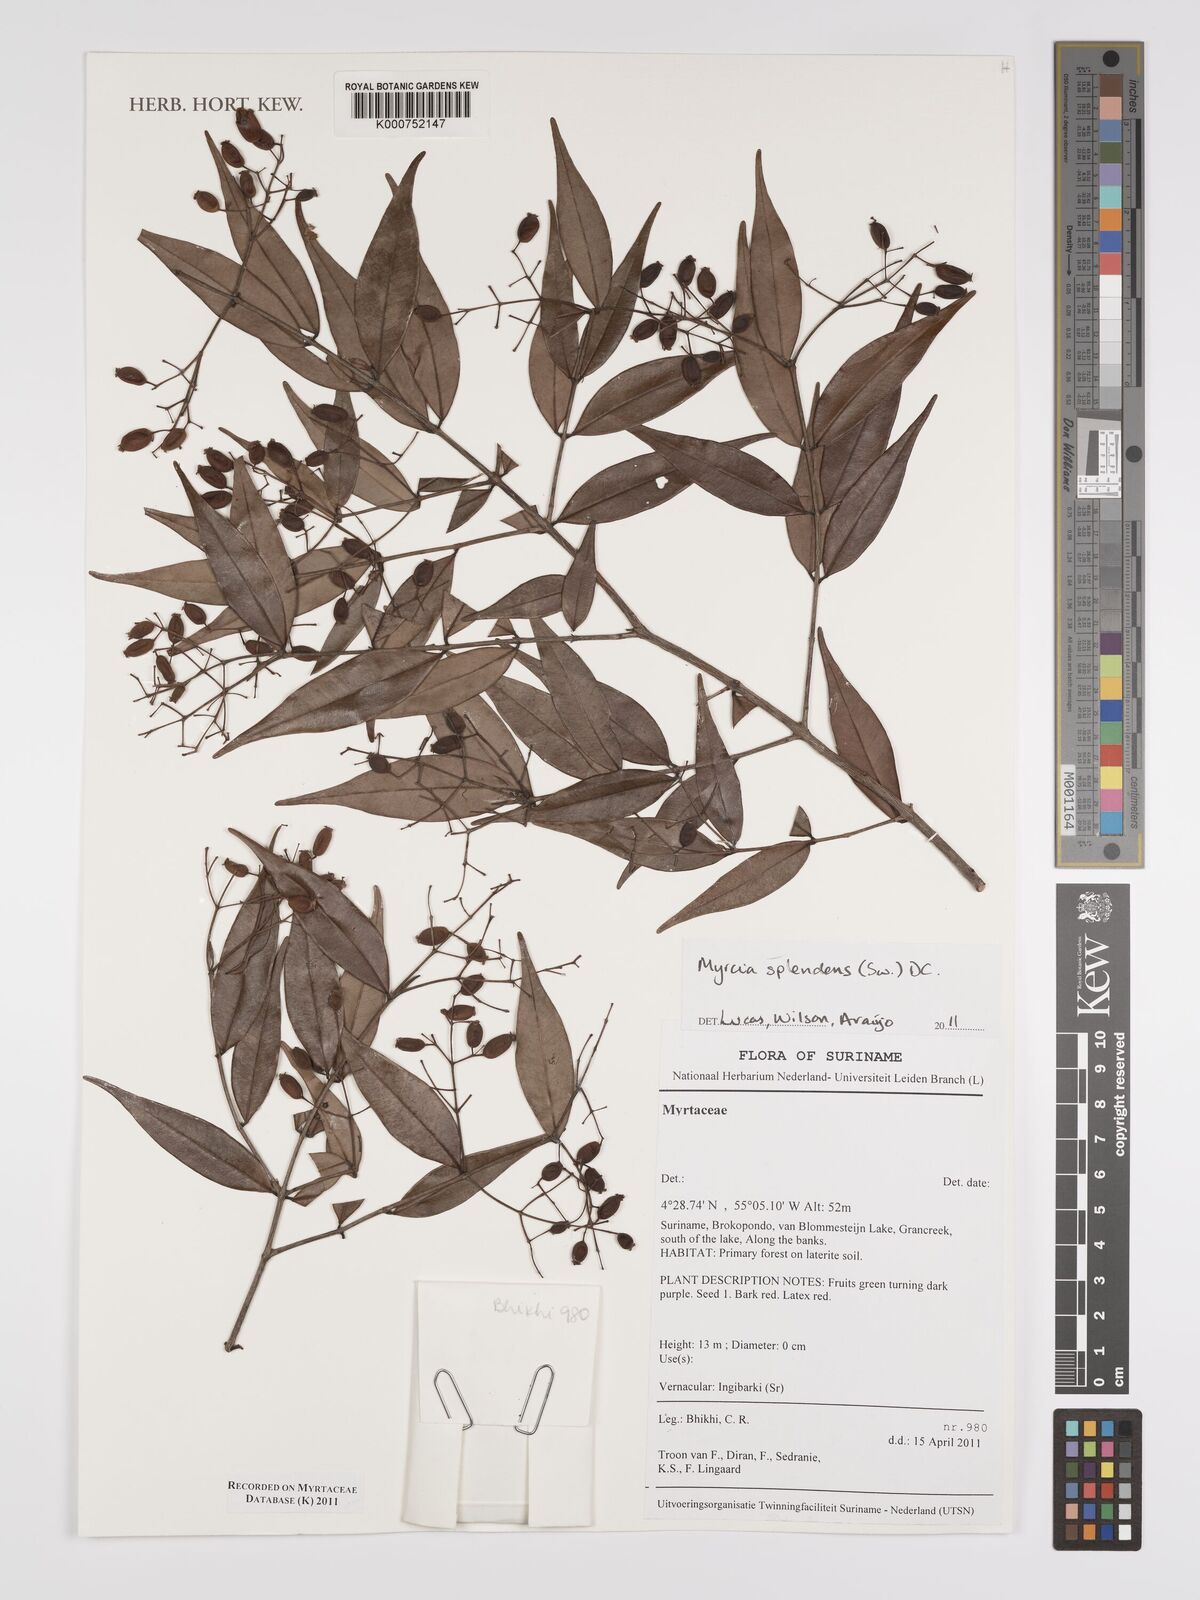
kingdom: Plantae
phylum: Tracheophyta
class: Magnoliopsida
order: Myrtales
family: Myrtaceae
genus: Myrcia
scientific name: Myrcia splendens
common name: Surinam cherry
